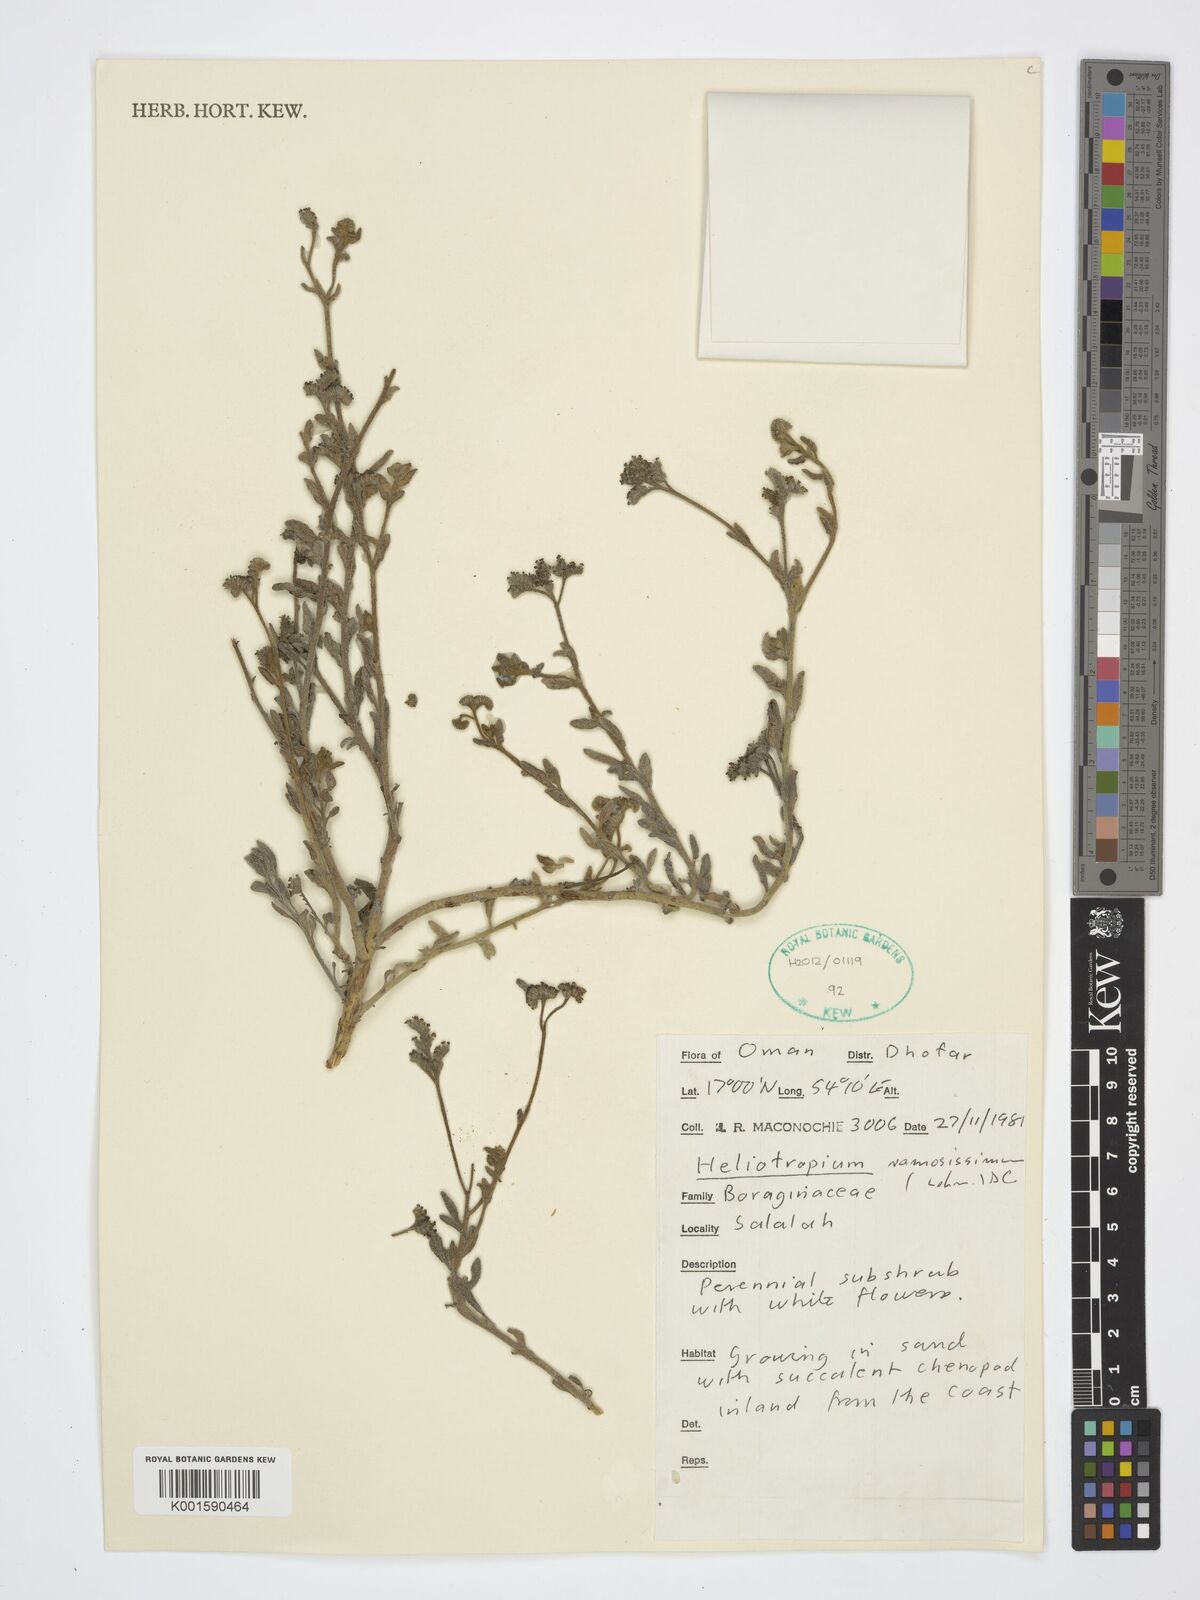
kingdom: Plantae
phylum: Tracheophyta
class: Magnoliopsida
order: Boraginales
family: Heliotropiaceae
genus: Heliotropium
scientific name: Heliotropium ramosissimum
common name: Wavy heliotrope
